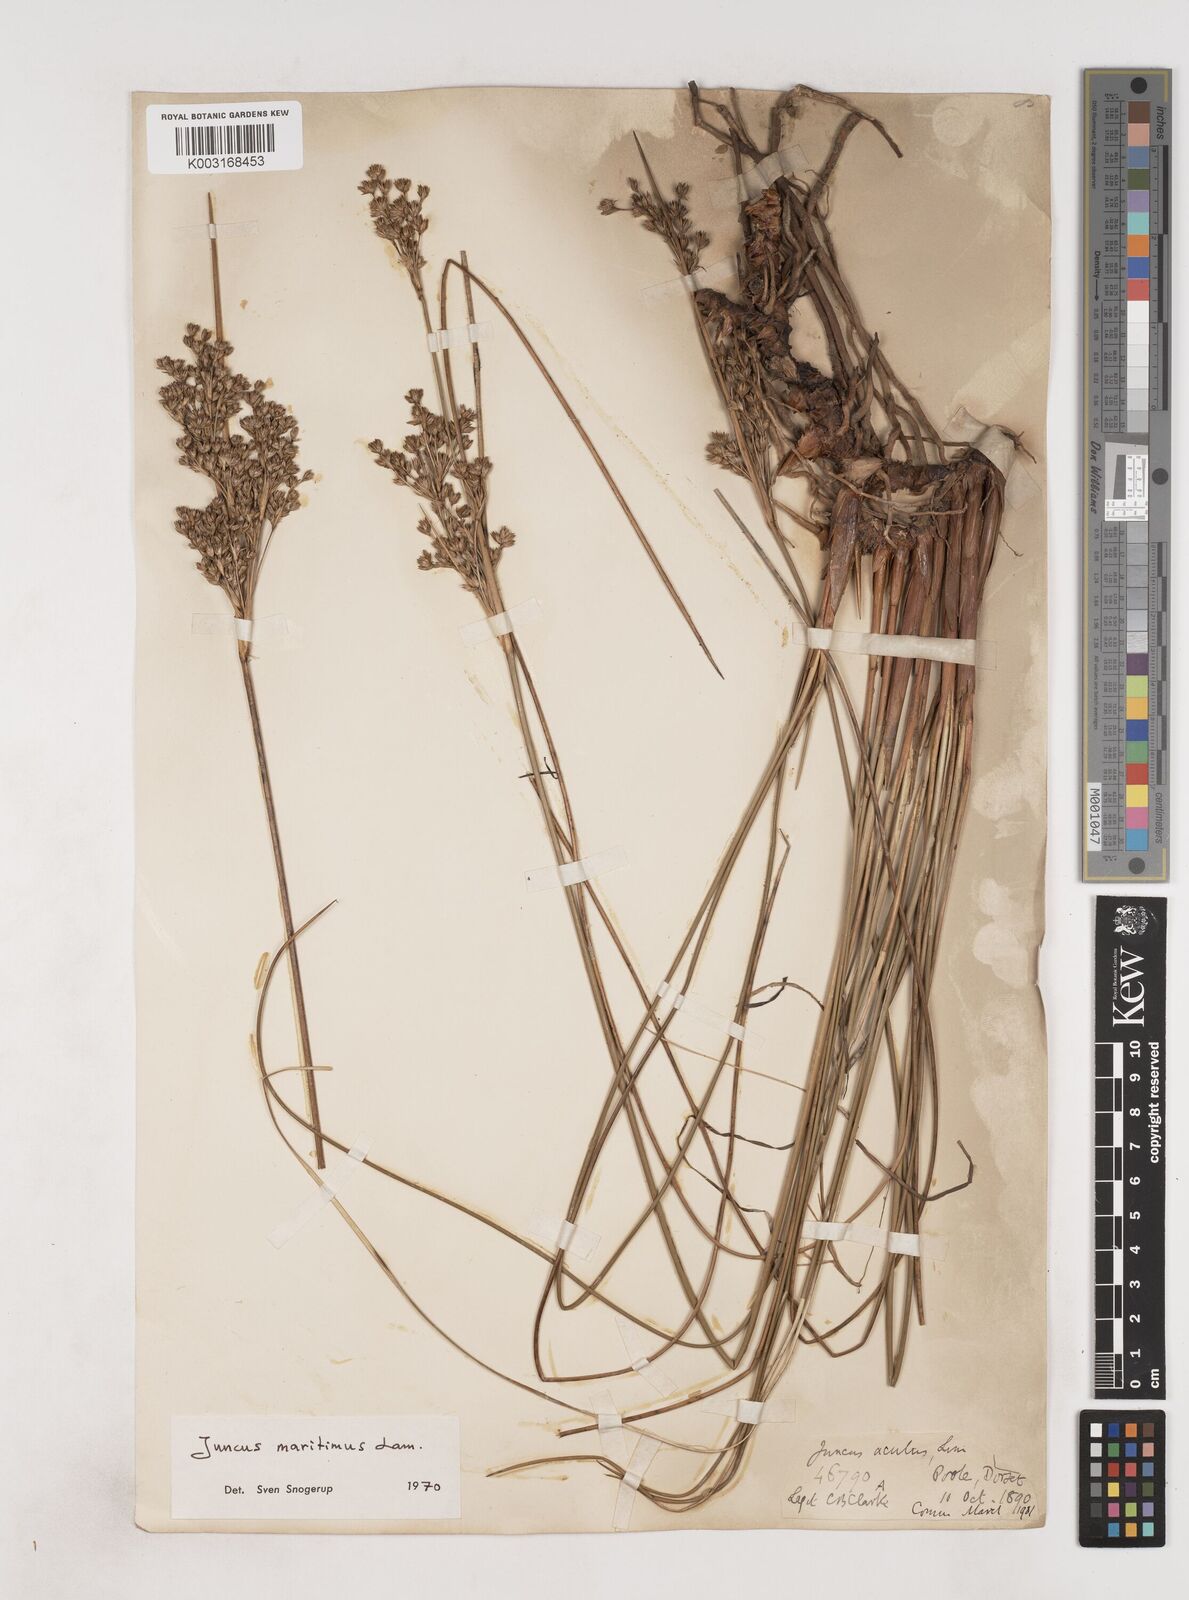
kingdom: Plantae
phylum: Tracheophyta
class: Liliopsida
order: Poales
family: Juncaceae
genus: Juncus
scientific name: Juncus maritimus
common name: Sea rush
